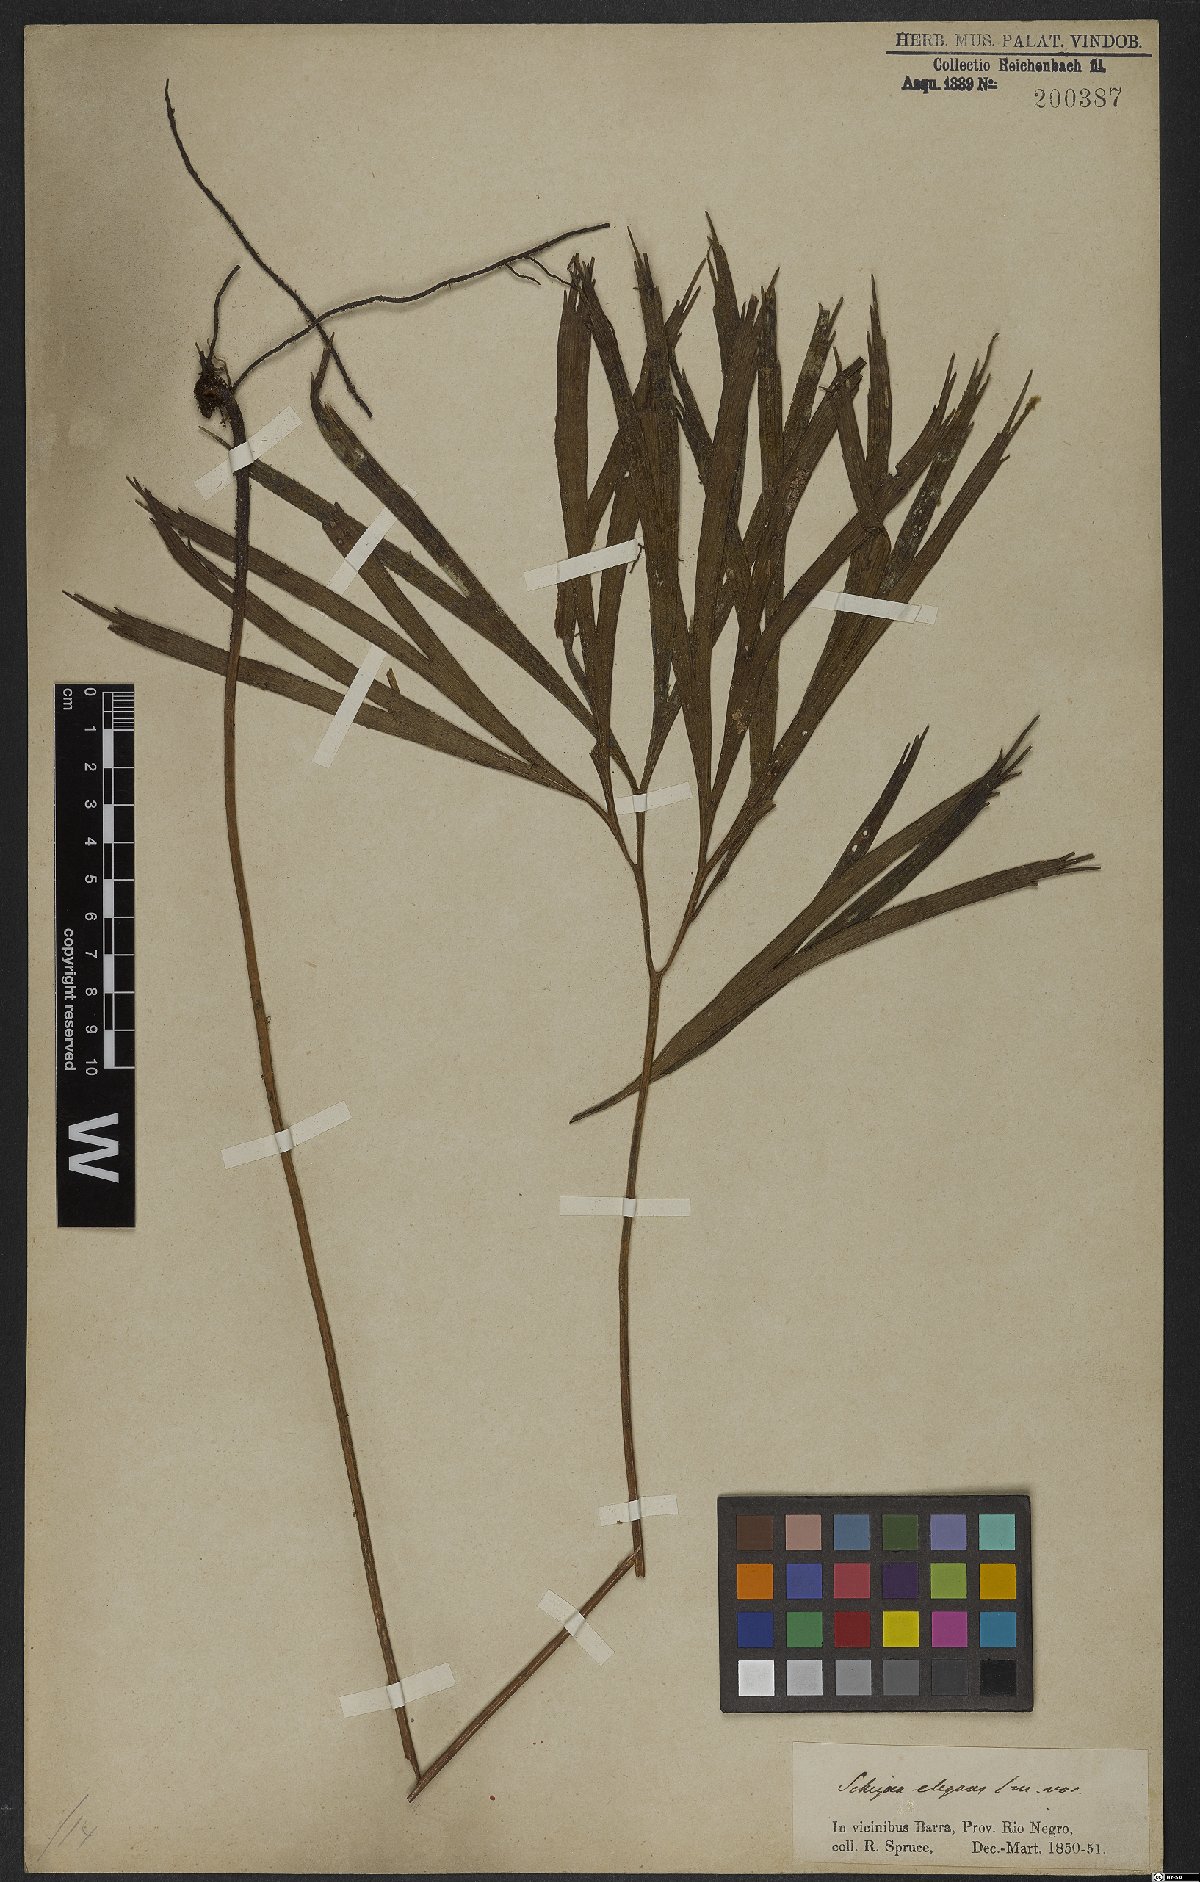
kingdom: Plantae
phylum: Tracheophyta
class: Polypodiopsida
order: Schizaeales
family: Schizaeaceae
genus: Schizaea
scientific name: Schizaea elegans
